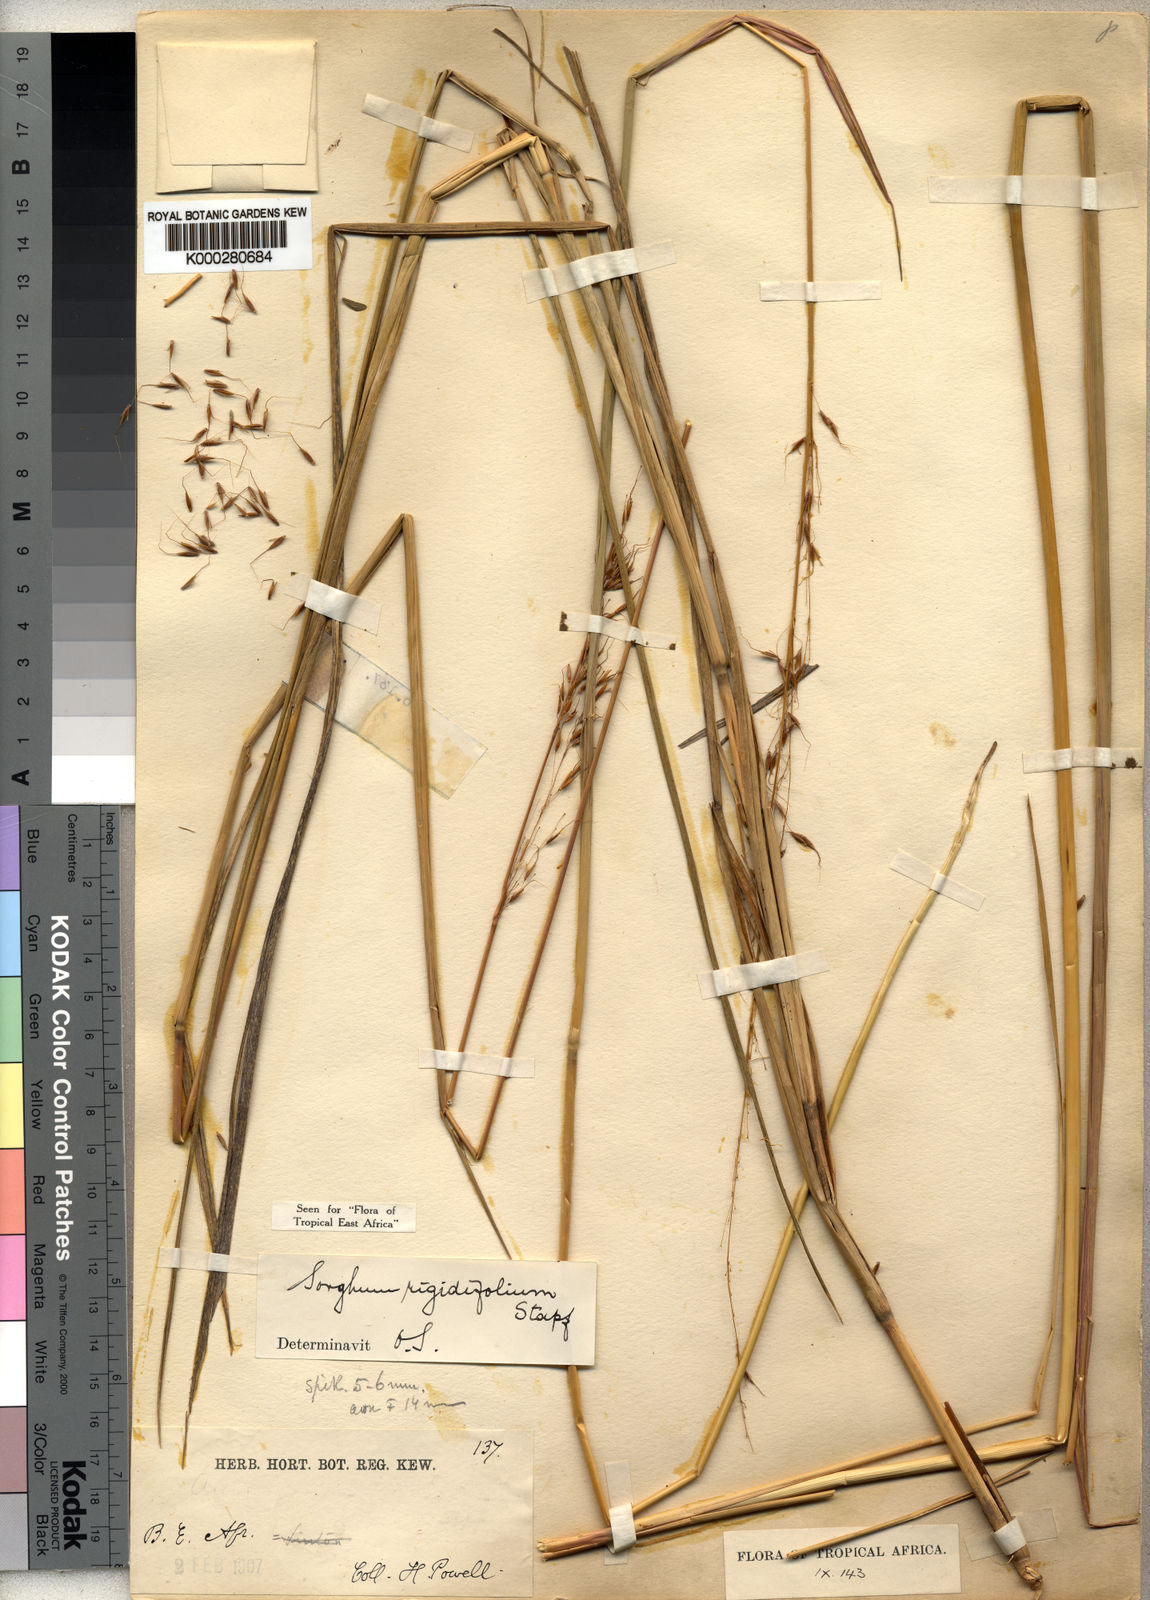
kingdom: Plantae
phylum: Tracheophyta
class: Liliopsida
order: Poales
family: Poaceae
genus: Sorghastrum
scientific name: Sorghastrum stipoides
